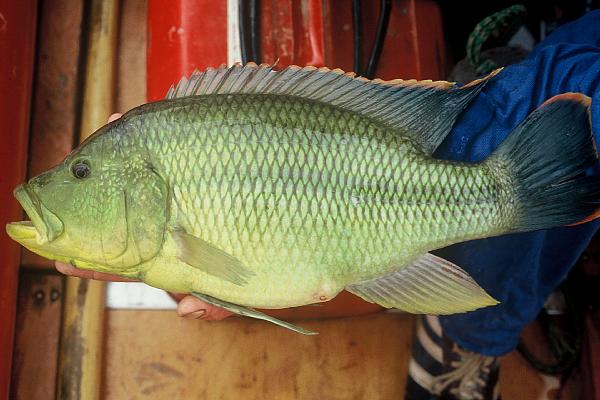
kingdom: Animalia
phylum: Chordata
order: Perciformes
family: Cichlidae
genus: Serranochromis
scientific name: Serranochromis robustus
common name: Yellow-belly bream
